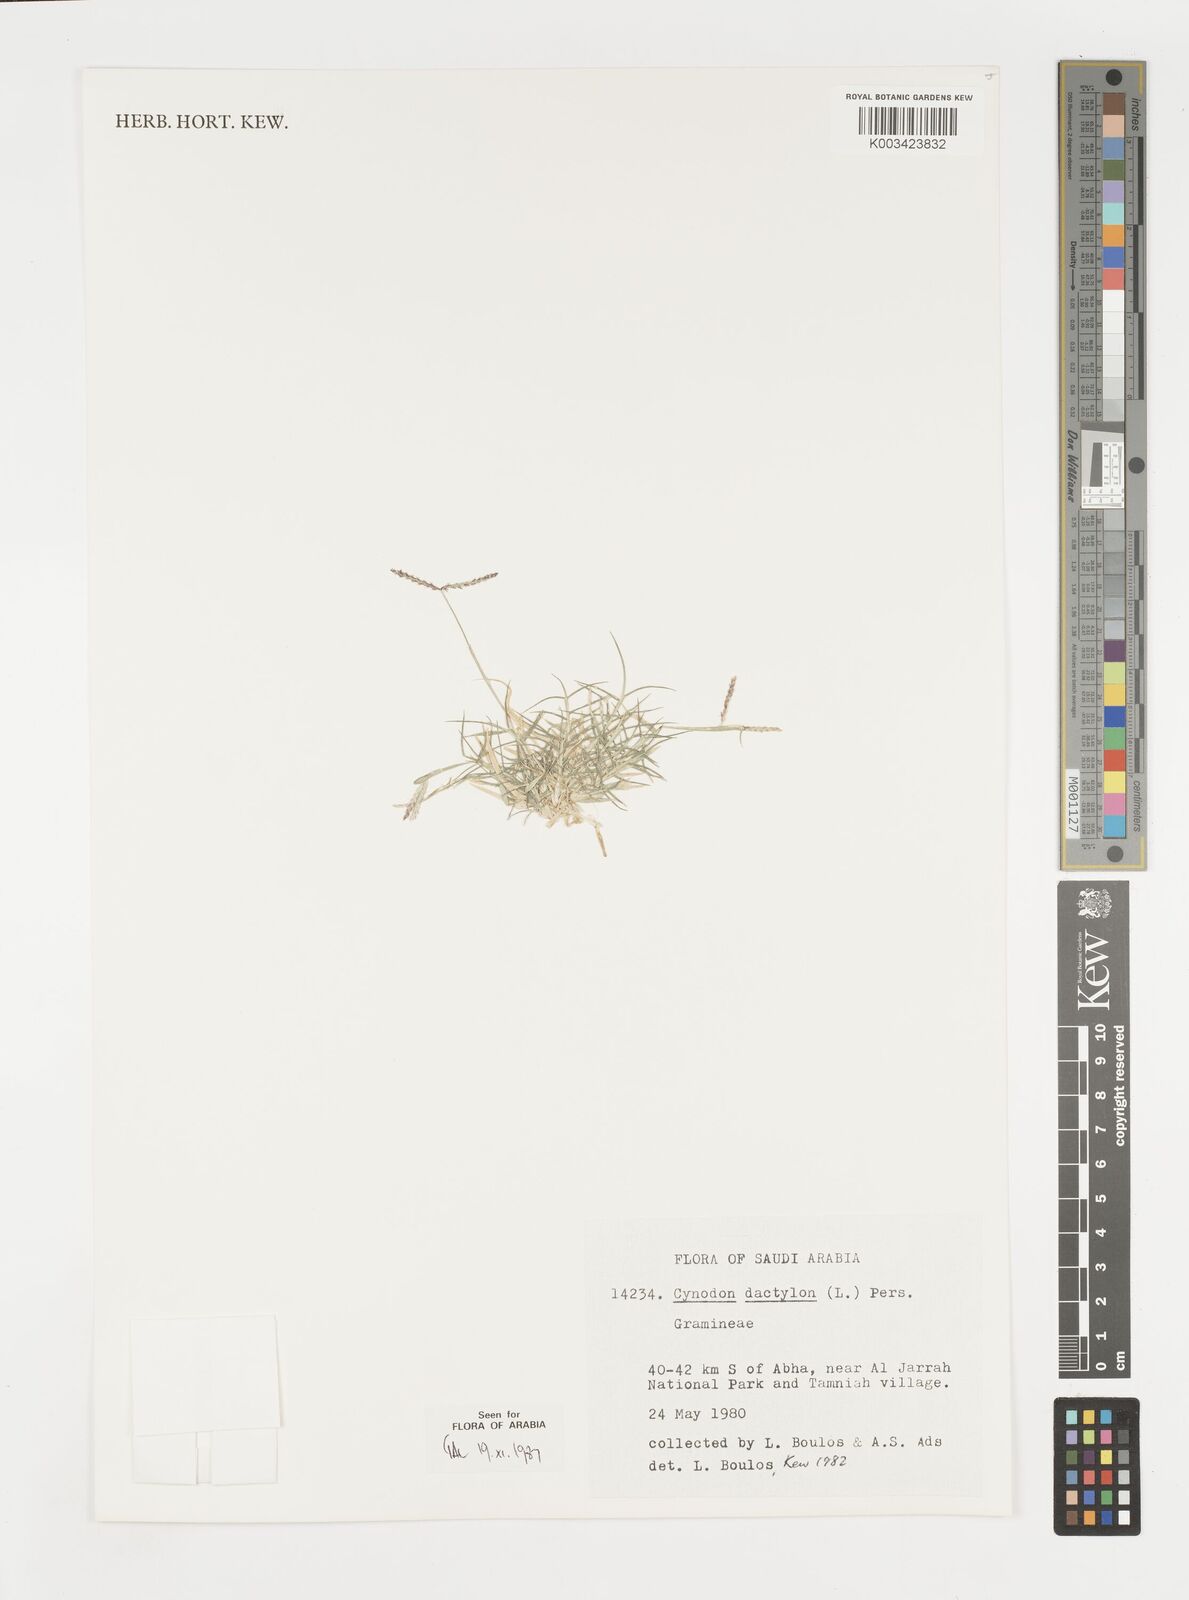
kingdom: Plantae
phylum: Tracheophyta
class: Liliopsida
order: Poales
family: Poaceae
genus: Cynodon
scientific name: Cynodon dactylon
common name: Bermuda grass
